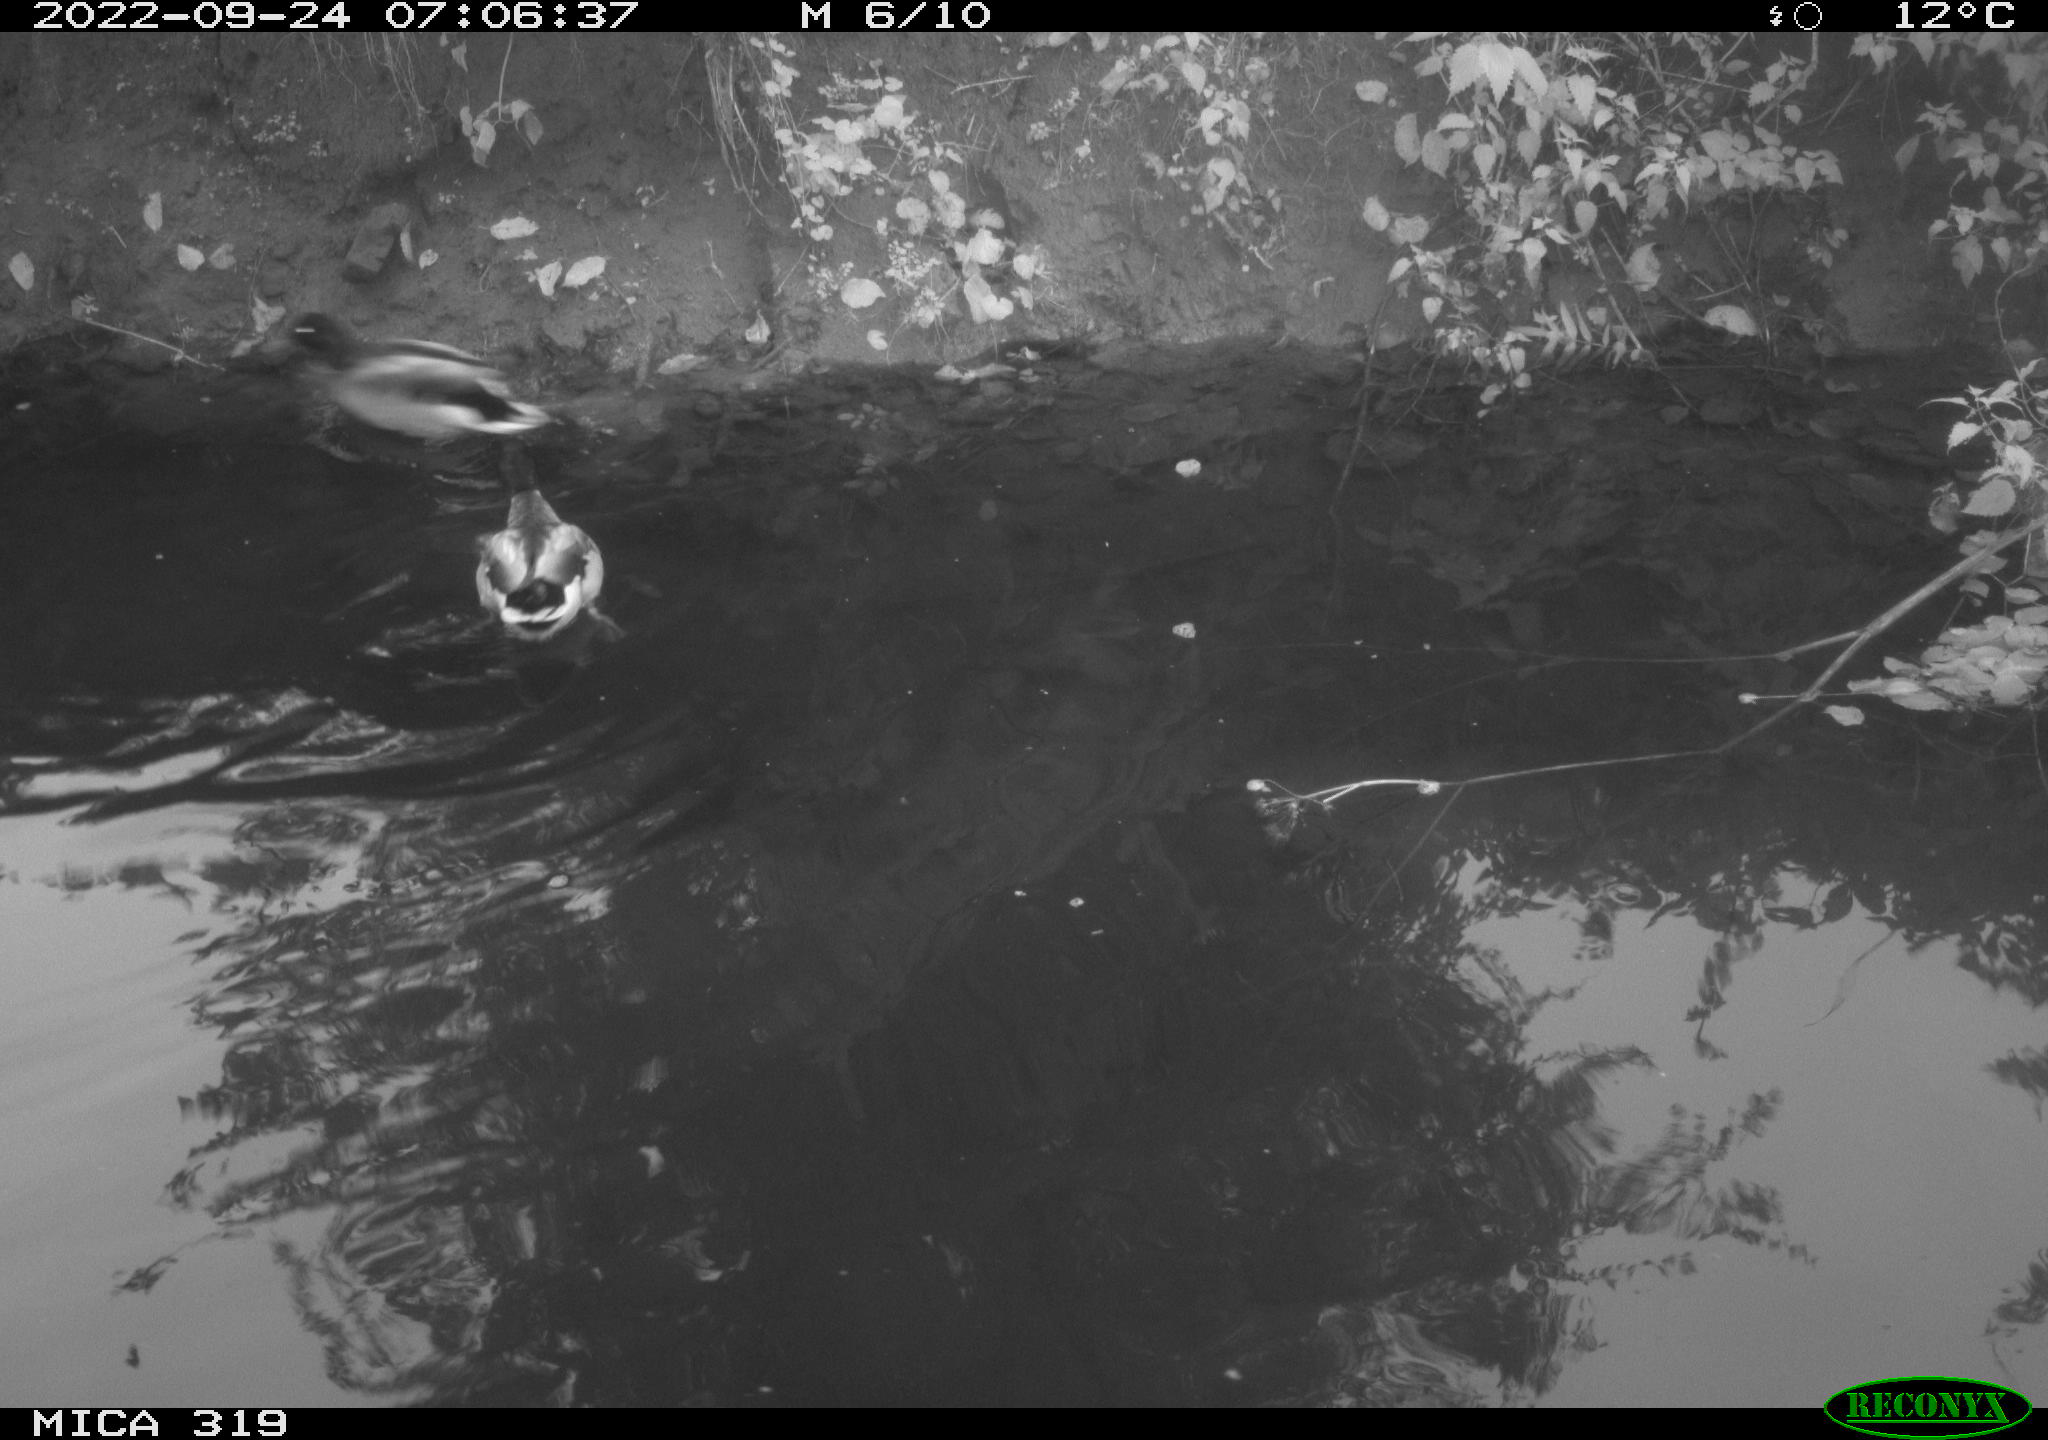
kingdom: Animalia
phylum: Chordata
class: Aves
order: Anseriformes
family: Anatidae
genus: Anas
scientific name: Anas
